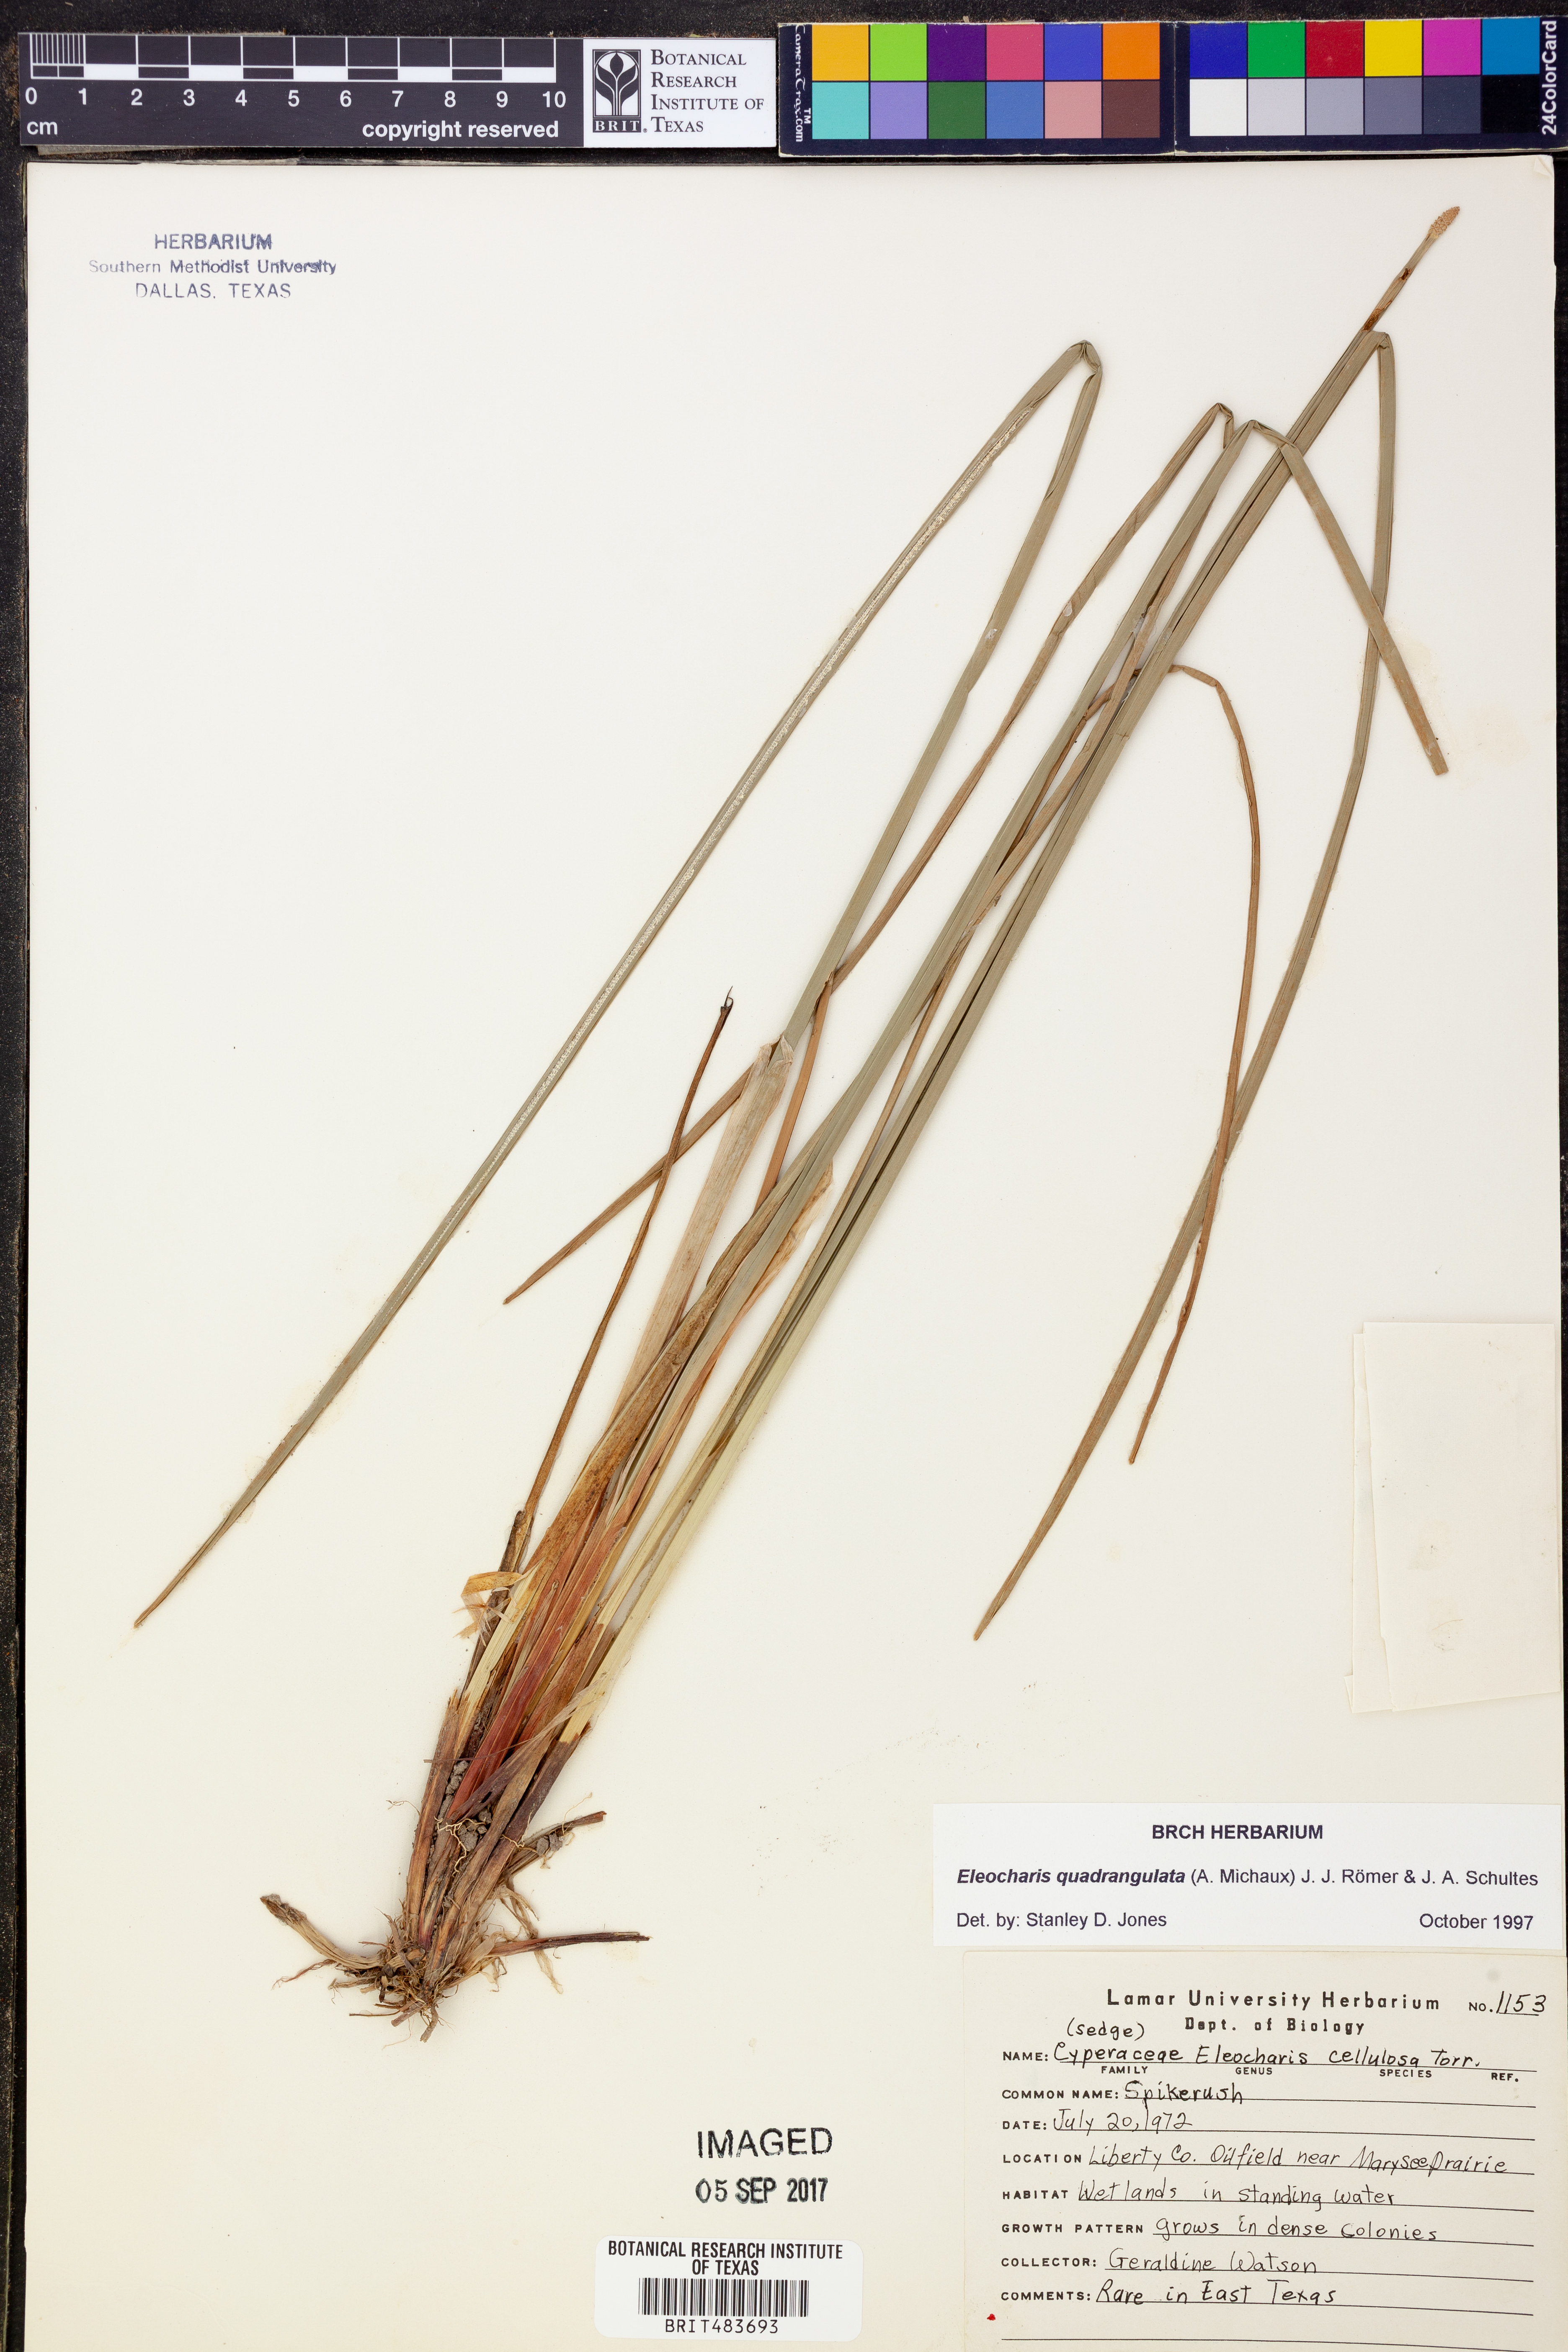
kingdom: Plantae
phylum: Tracheophyta
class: Liliopsida
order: Poales
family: Cyperaceae
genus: Eleocharis
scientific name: Eleocharis quadrangulata
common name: Square-stem spike-rush
